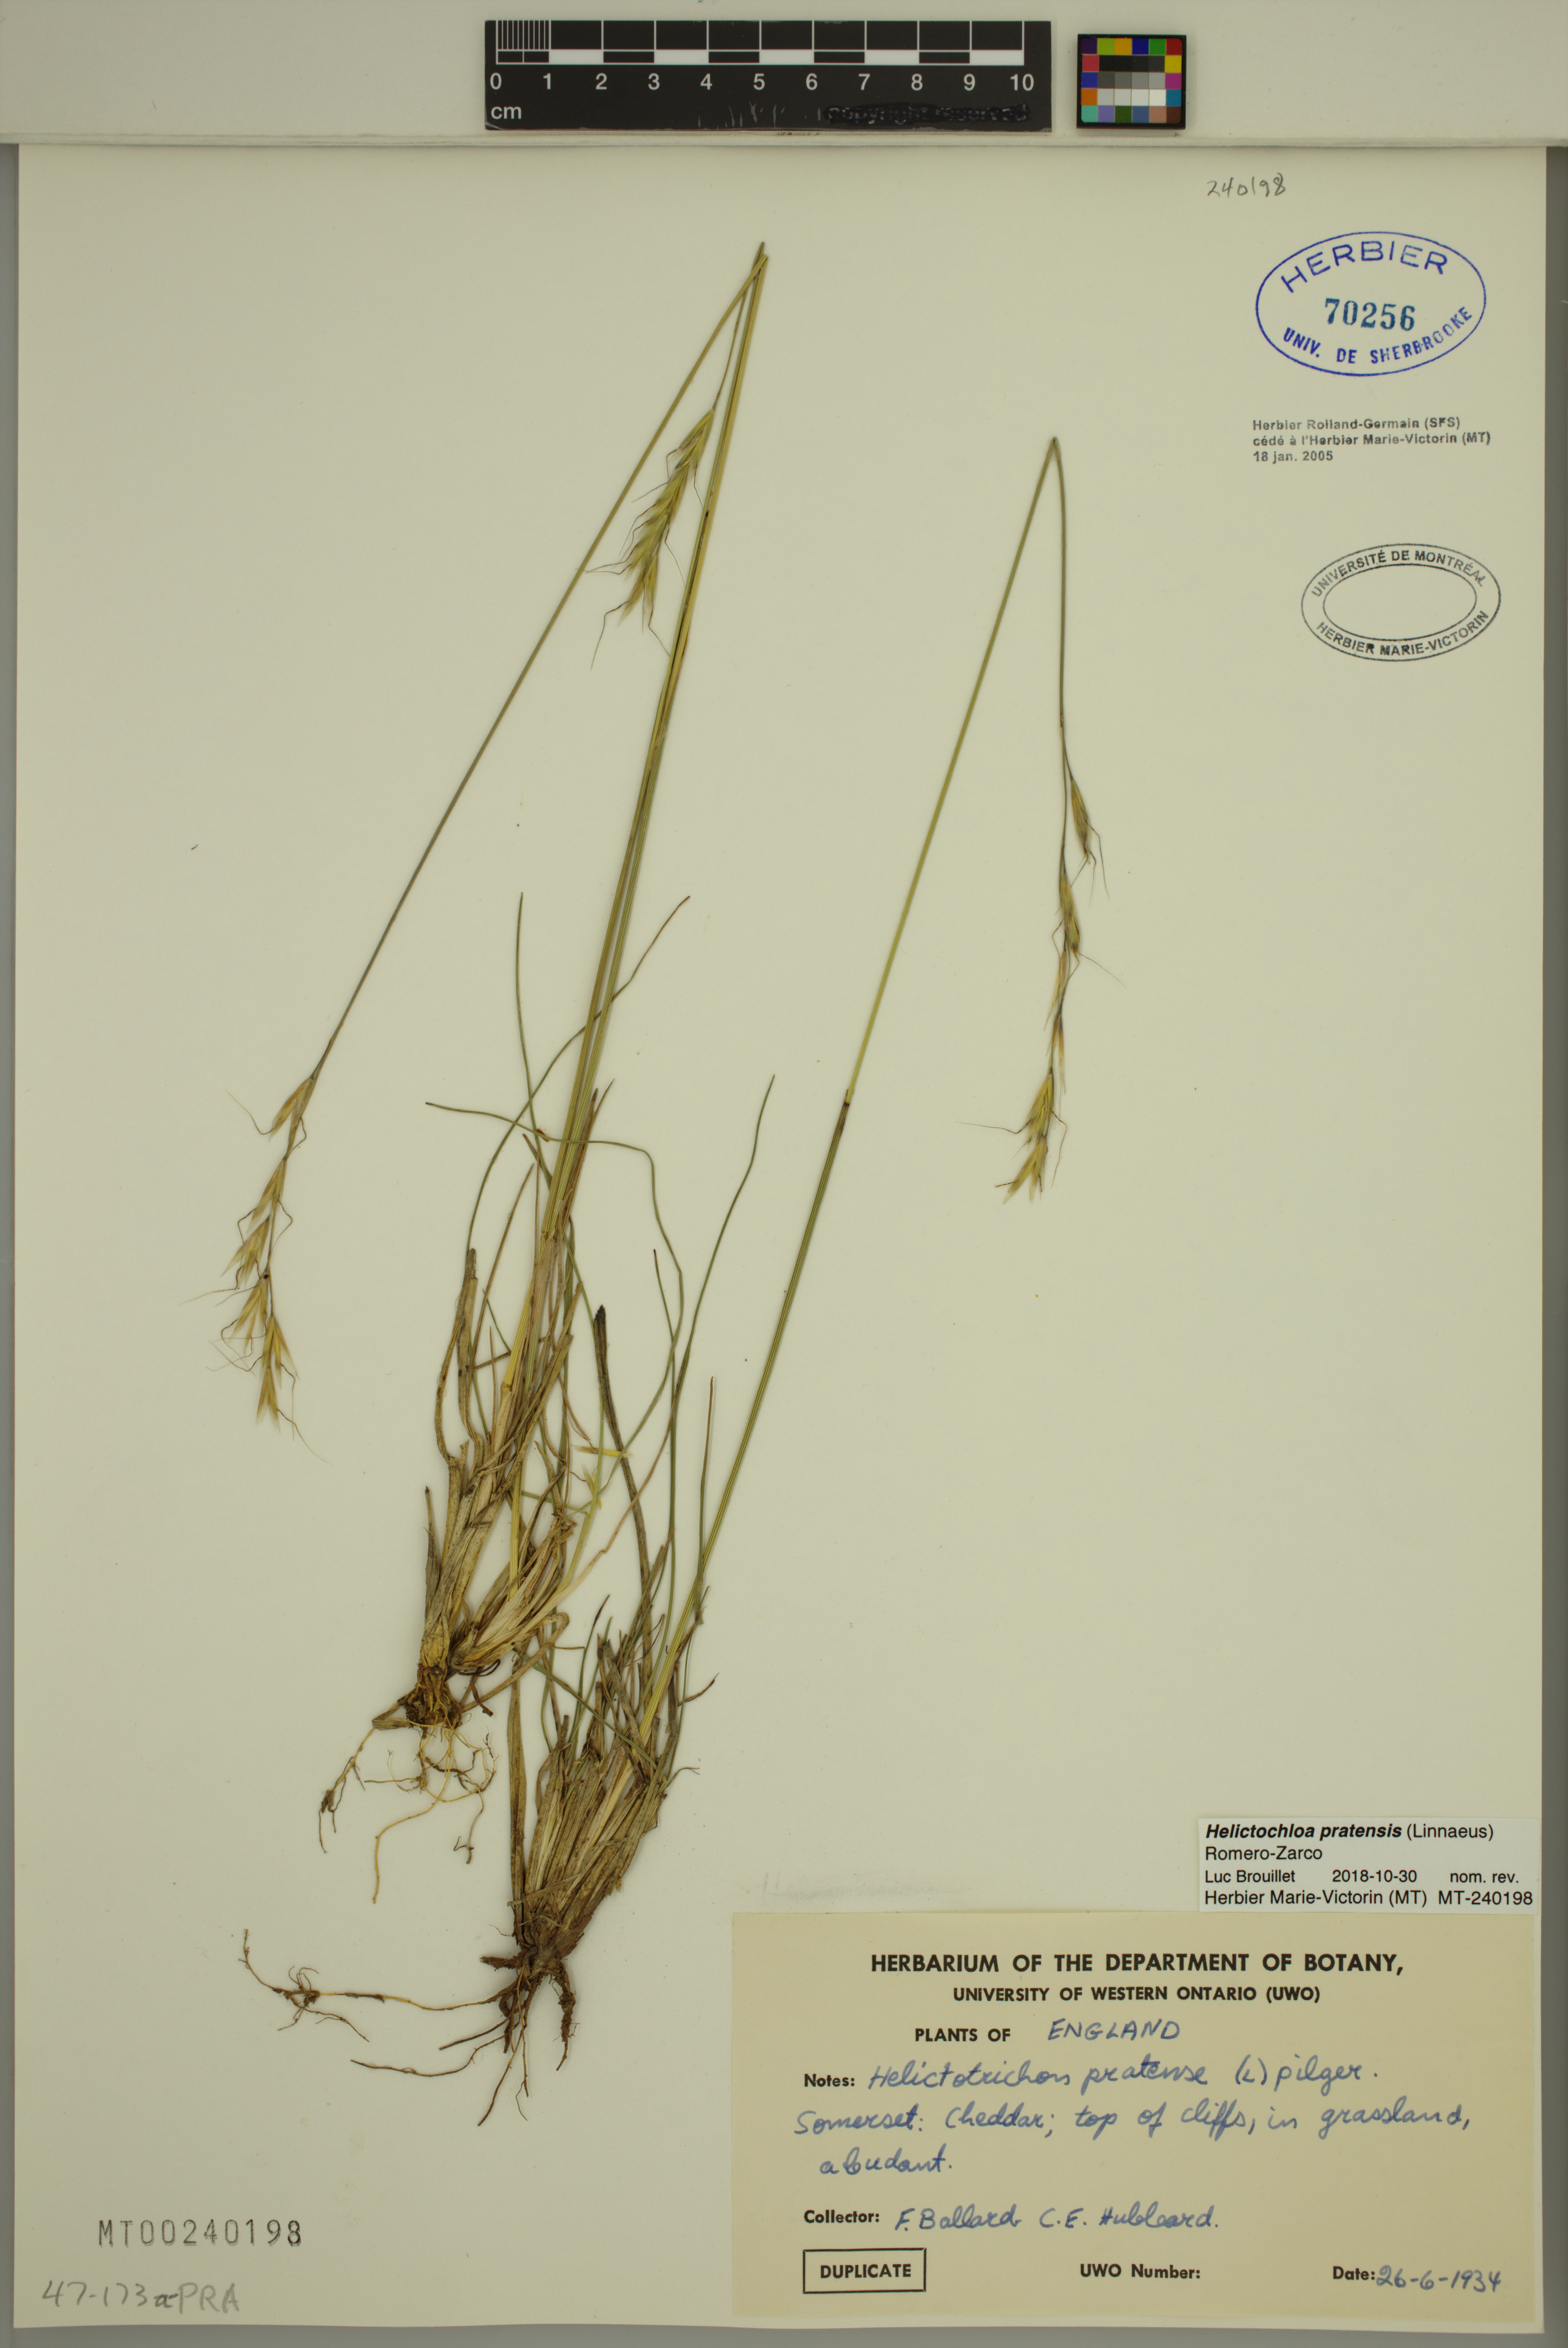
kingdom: Plantae
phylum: Tracheophyta
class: Liliopsida
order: Poales
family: Poaceae
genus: Helictochloa
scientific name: Helictochloa pratensis
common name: Meadow oat grass
